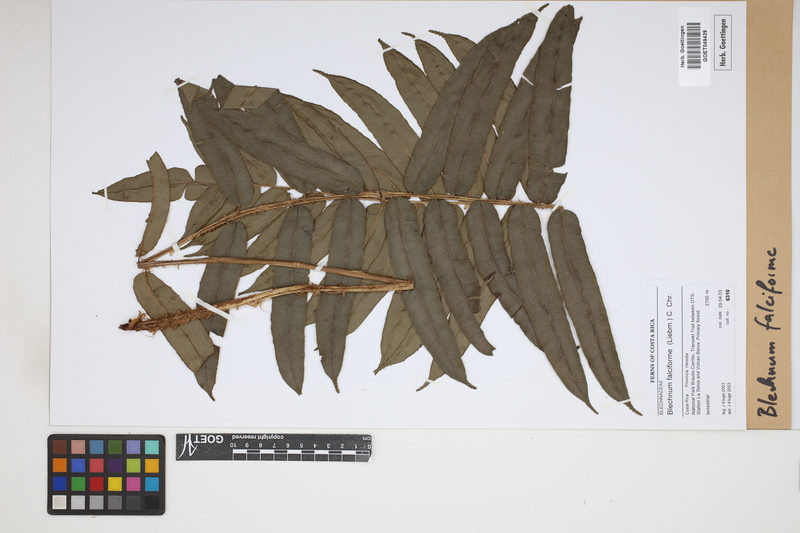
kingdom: Plantae
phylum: Tracheophyta
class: Polypodiopsida
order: Polypodiales
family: Blechnaceae
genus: Parablechnum
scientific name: Parablechnum falciforme
